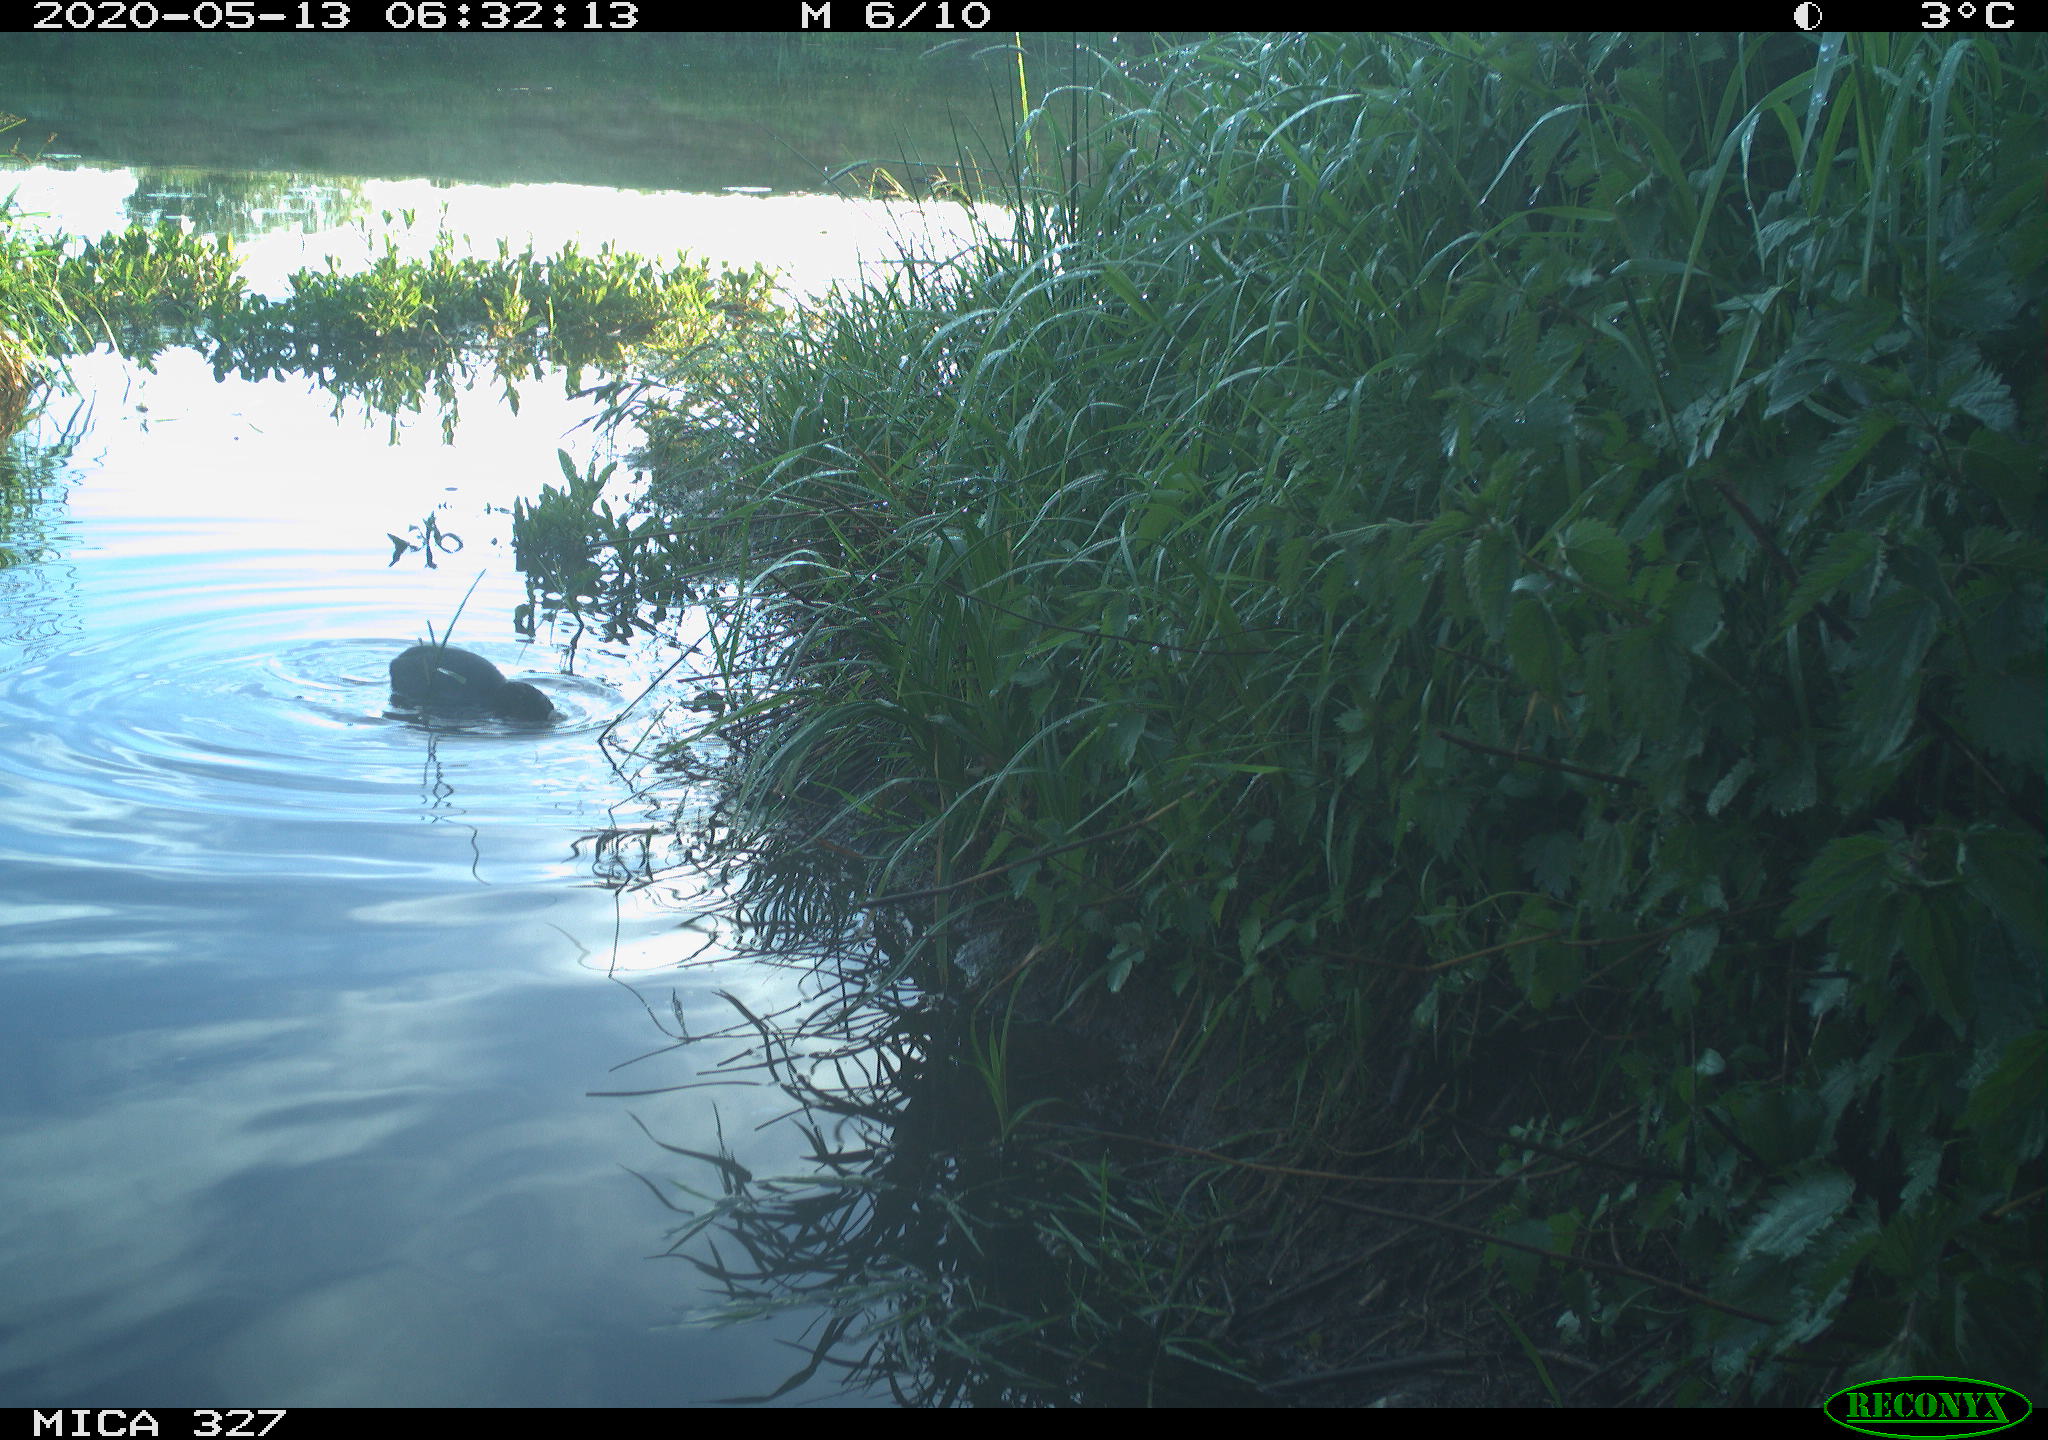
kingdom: Animalia
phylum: Chordata
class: Aves
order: Gruiformes
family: Rallidae
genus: Fulica
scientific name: Fulica atra
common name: Eurasian coot
